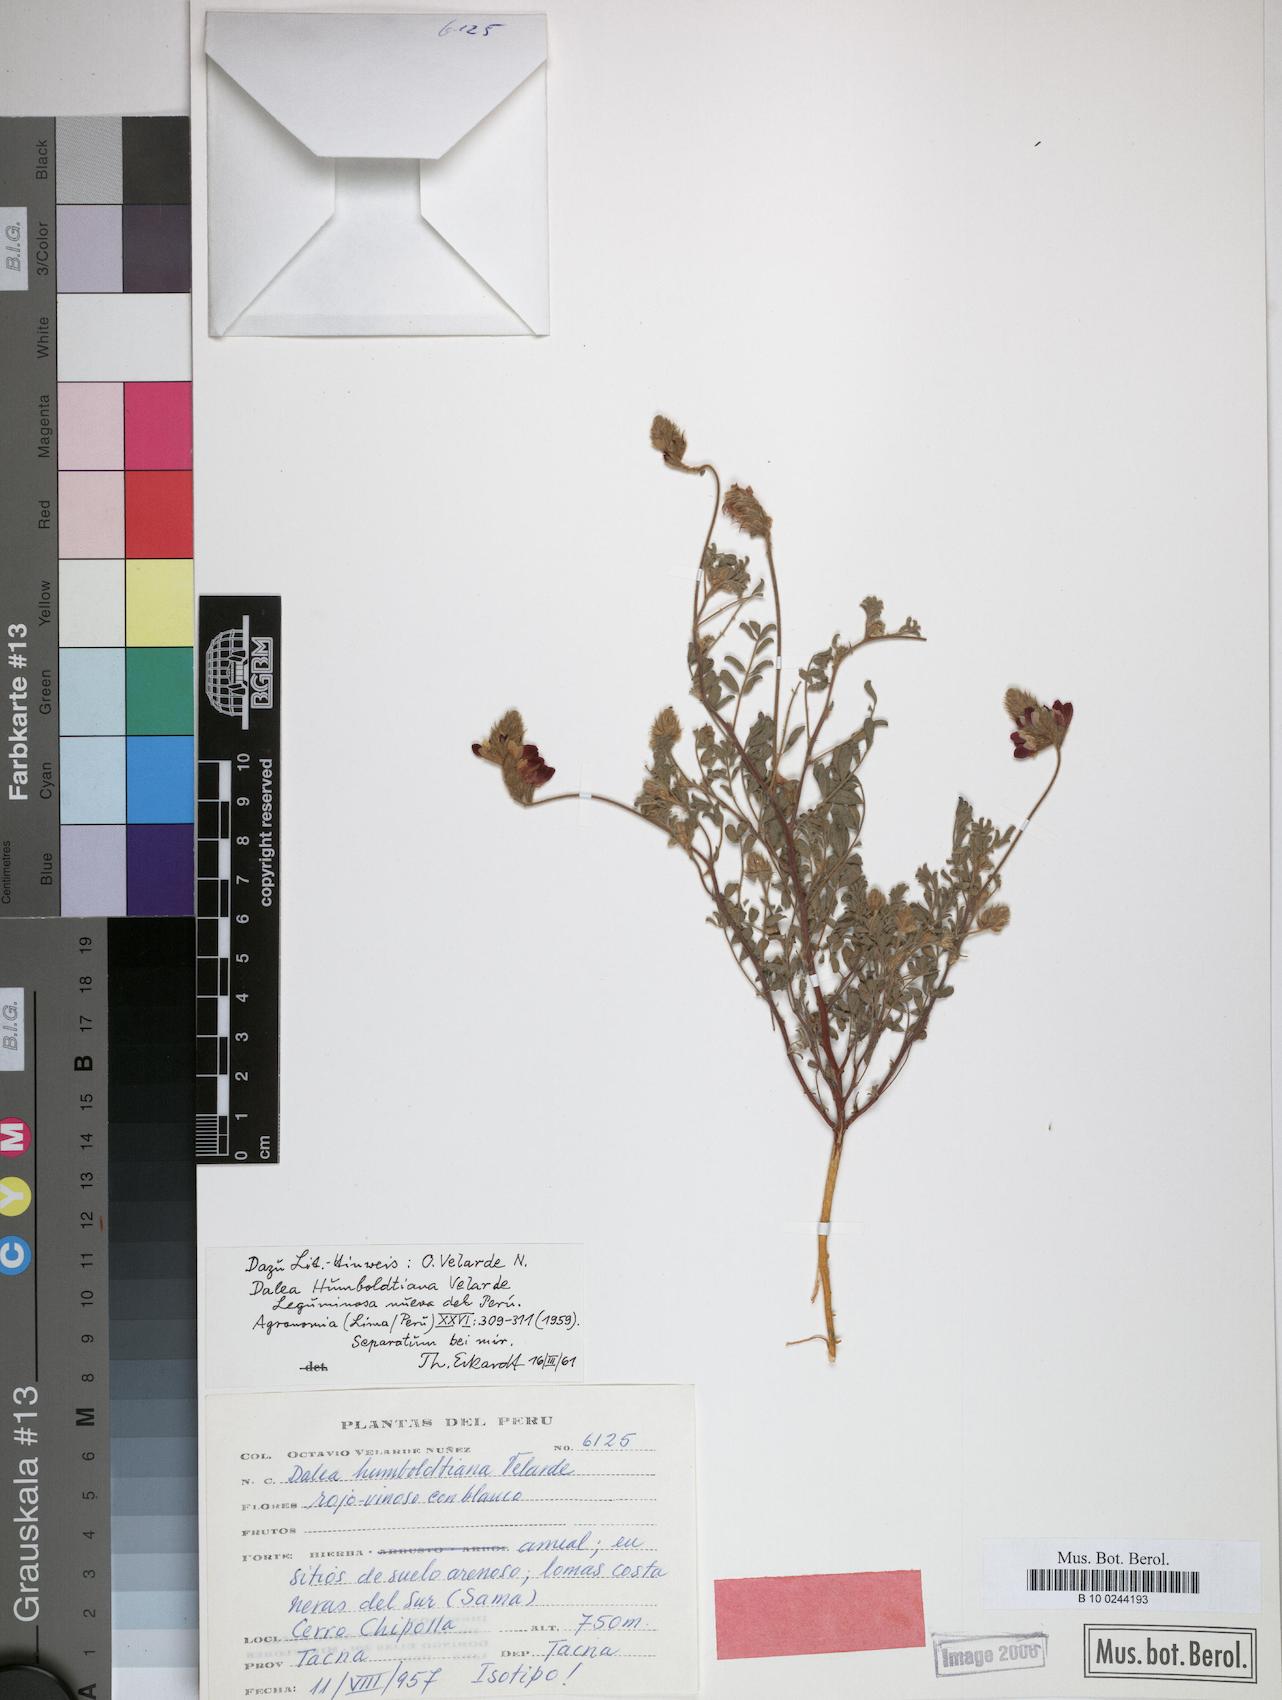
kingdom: Plantae
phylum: Tracheophyta
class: Magnoliopsida
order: Fabales
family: Fabaceae
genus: Dalea
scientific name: Dalea humboldtiana
